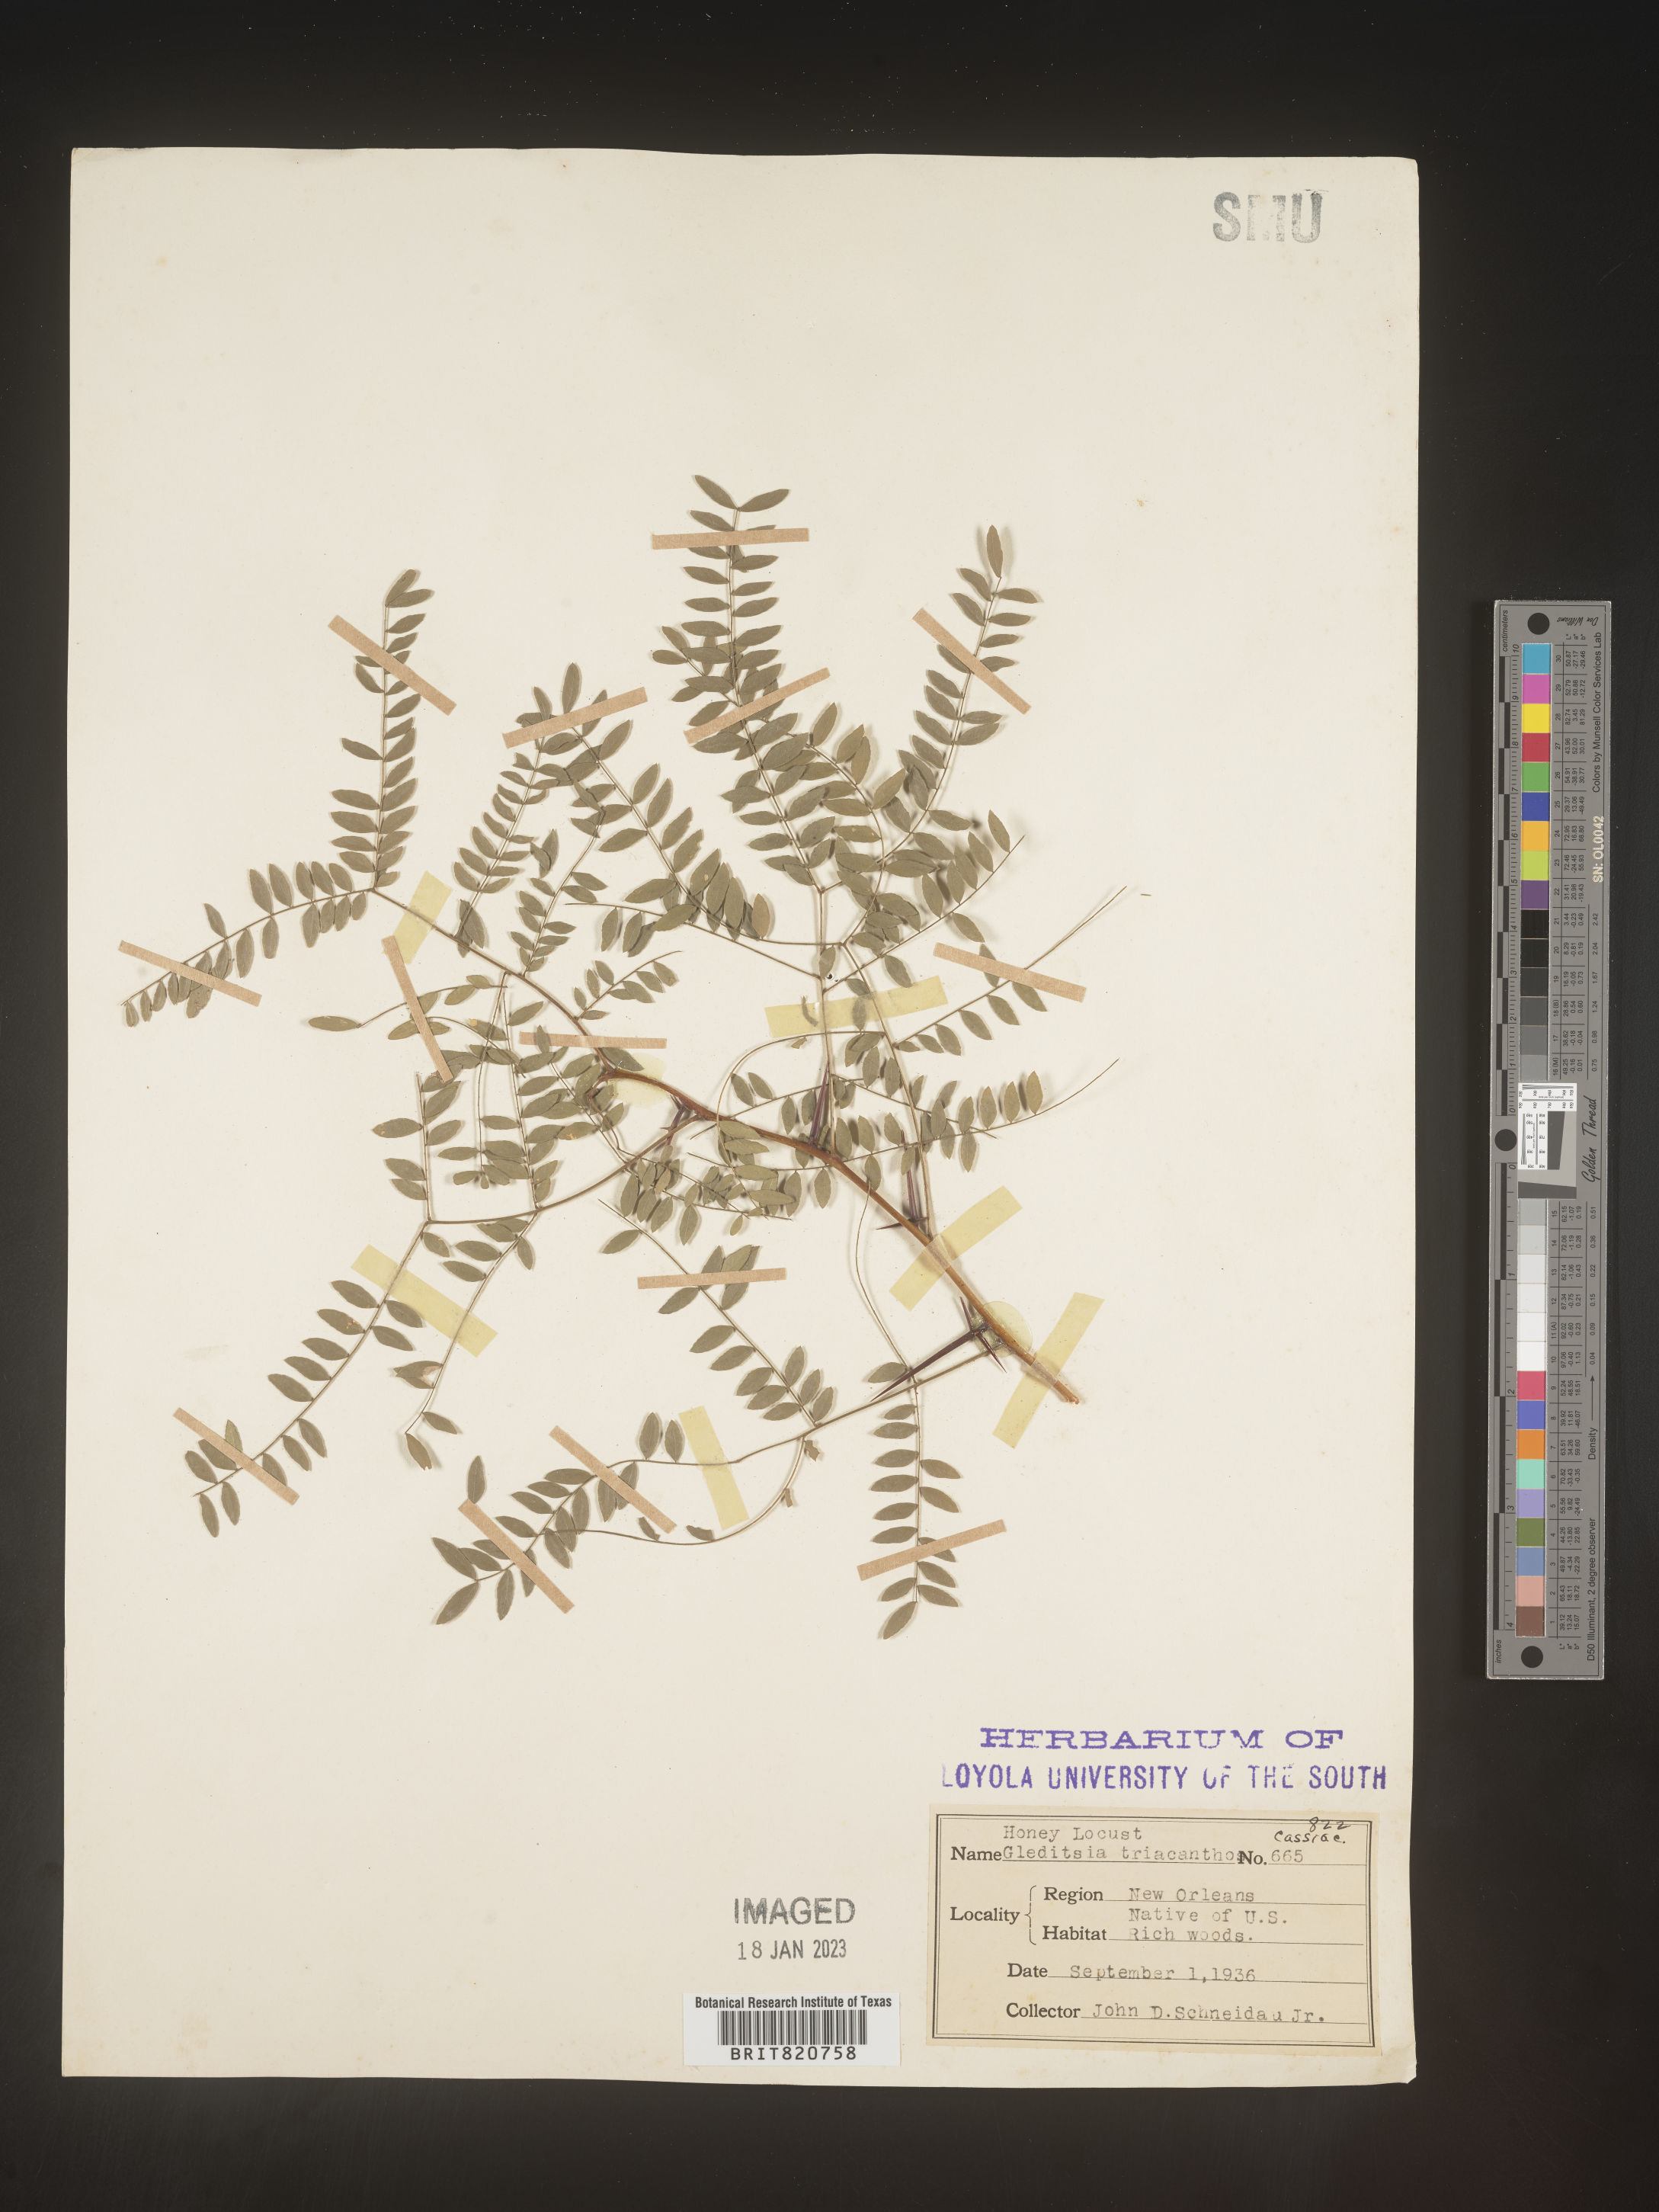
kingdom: Plantae
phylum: Tracheophyta
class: Magnoliopsida
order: Fabales
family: Fabaceae
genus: Gleditsia
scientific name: Gleditsia triacanthos
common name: Common honeylocust
